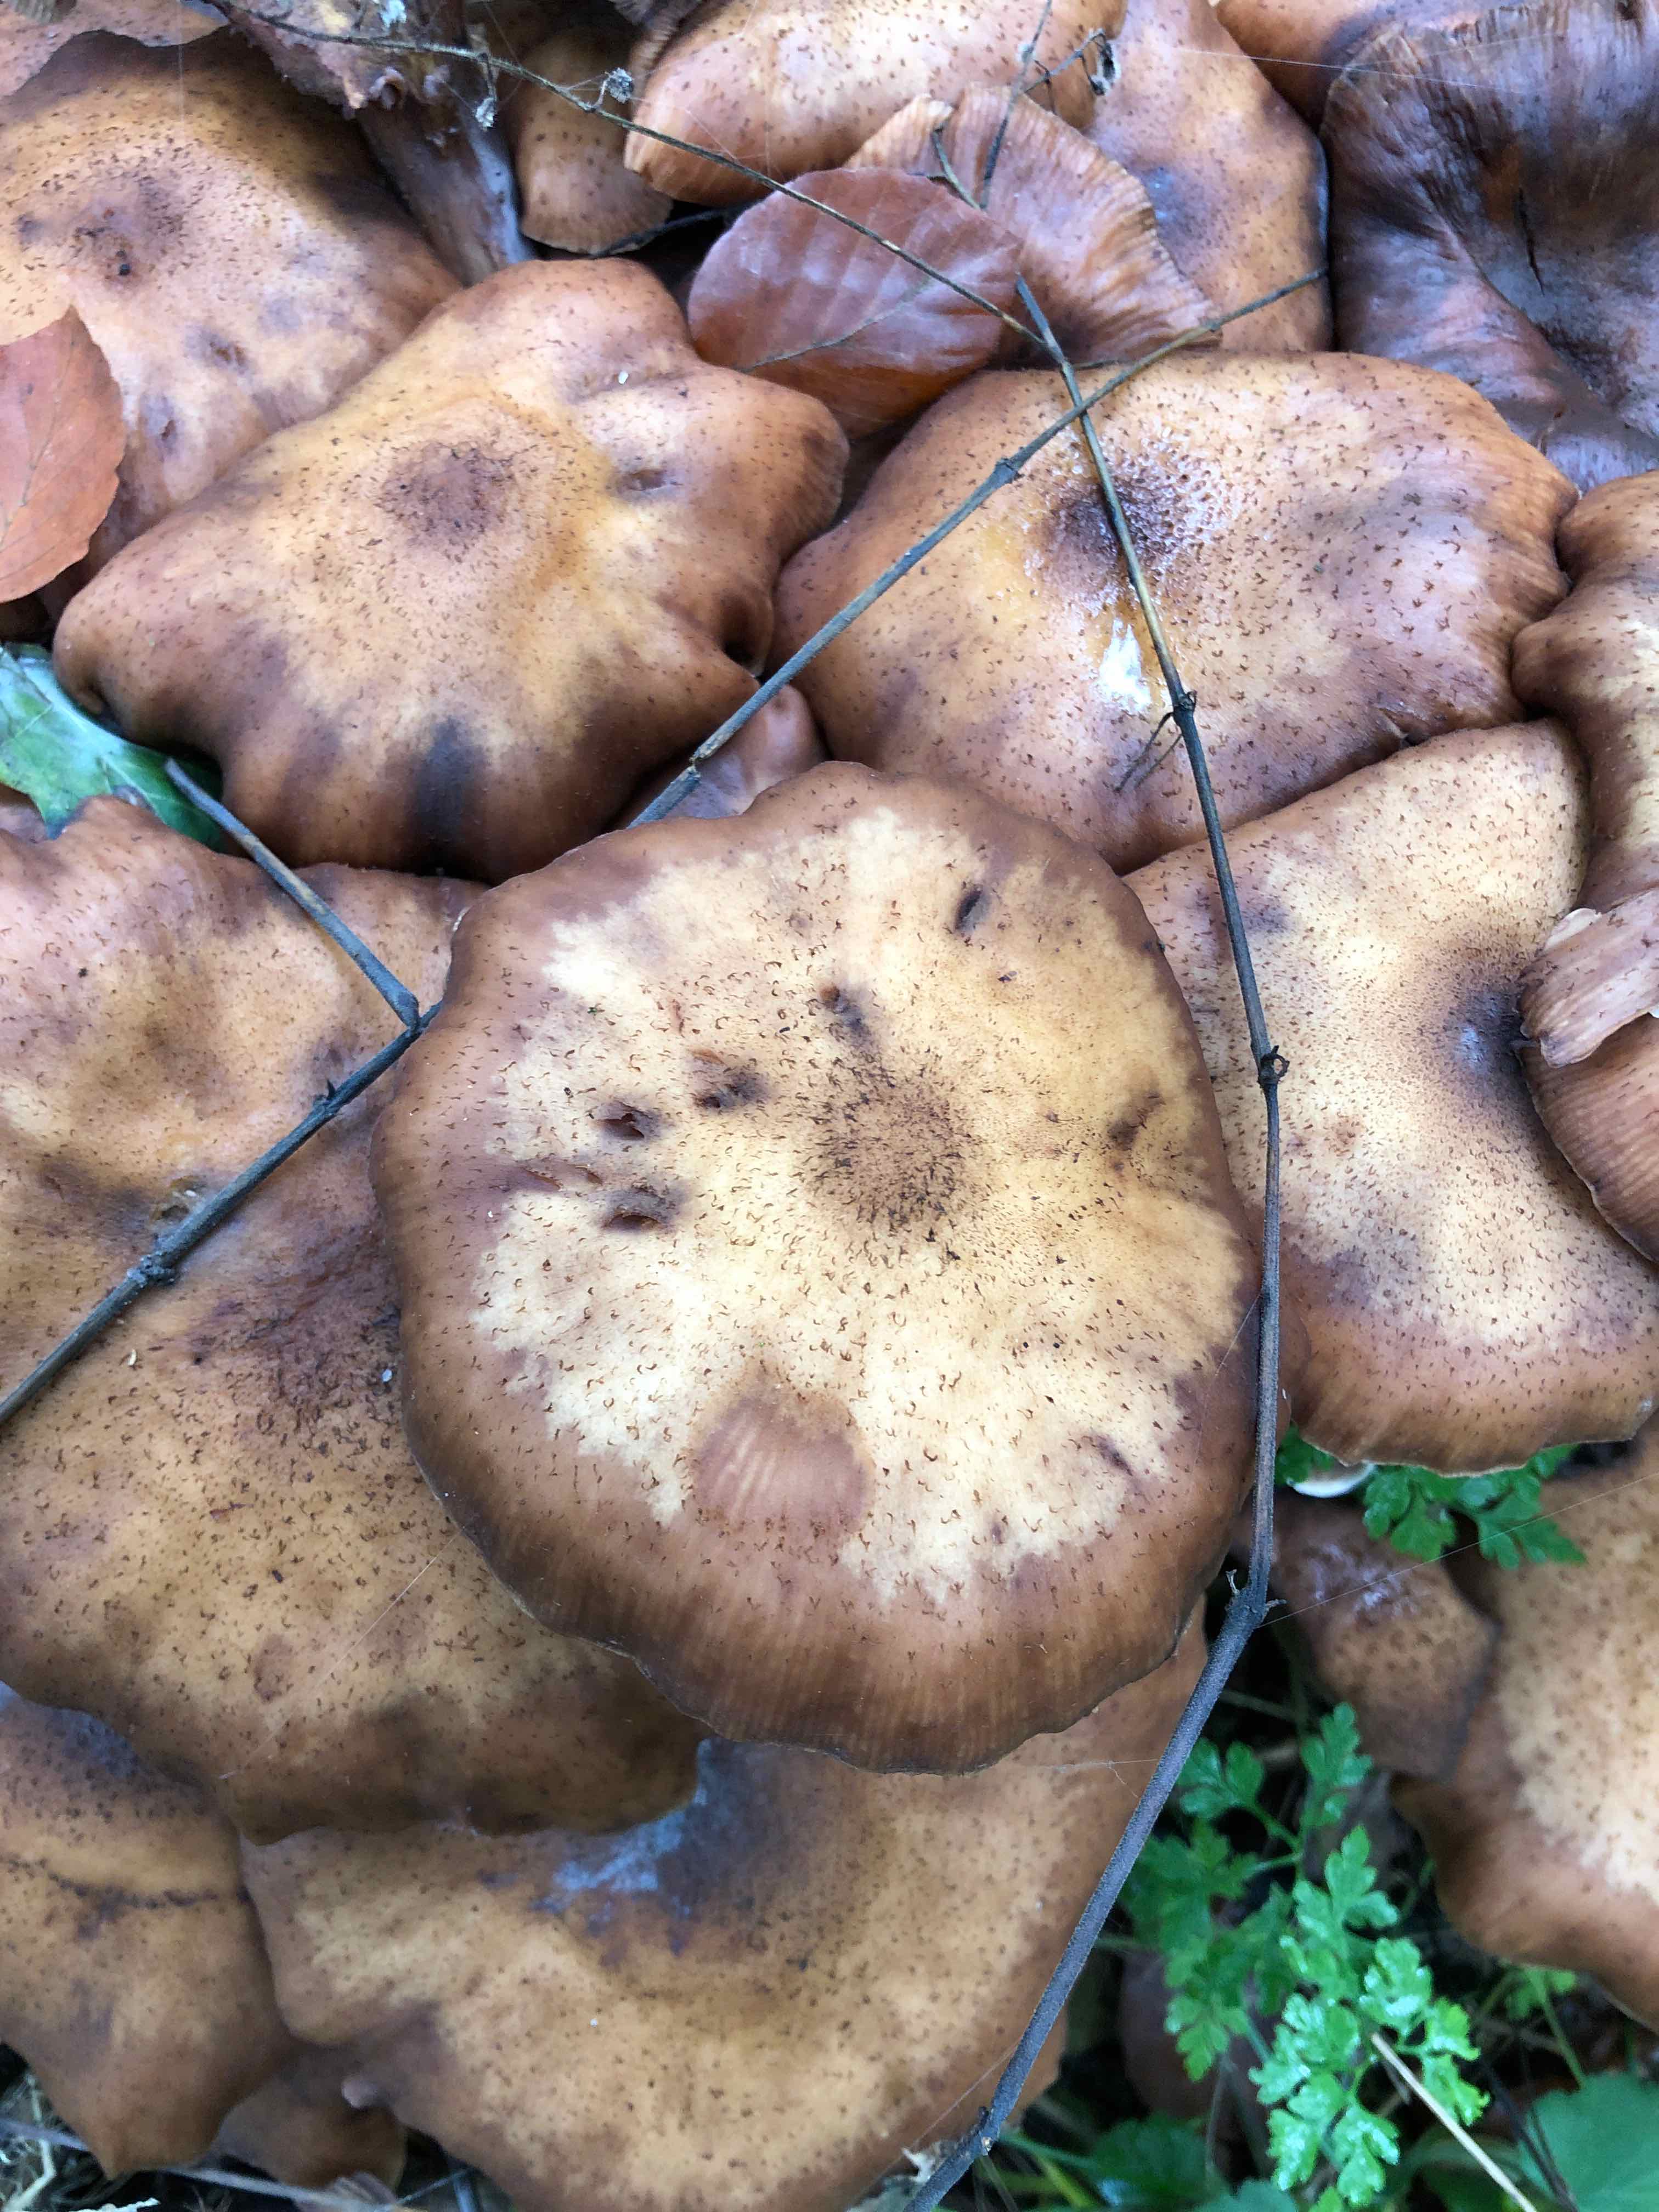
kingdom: Fungi
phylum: Basidiomycota
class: Agaricomycetes
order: Agaricales
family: Physalacriaceae
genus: Armillaria
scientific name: Armillaria lutea
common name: køllestokket honningsvamp
